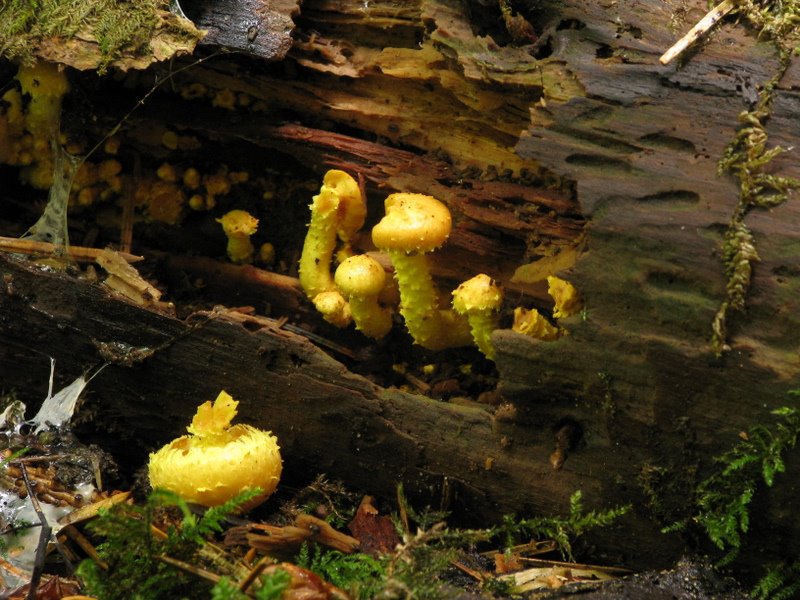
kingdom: Fungi
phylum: Basidiomycota
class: Agaricomycetes
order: Agaricales
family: Strophariaceae
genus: Pholiota
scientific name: Pholiota flammans
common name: flamme-skælhat
